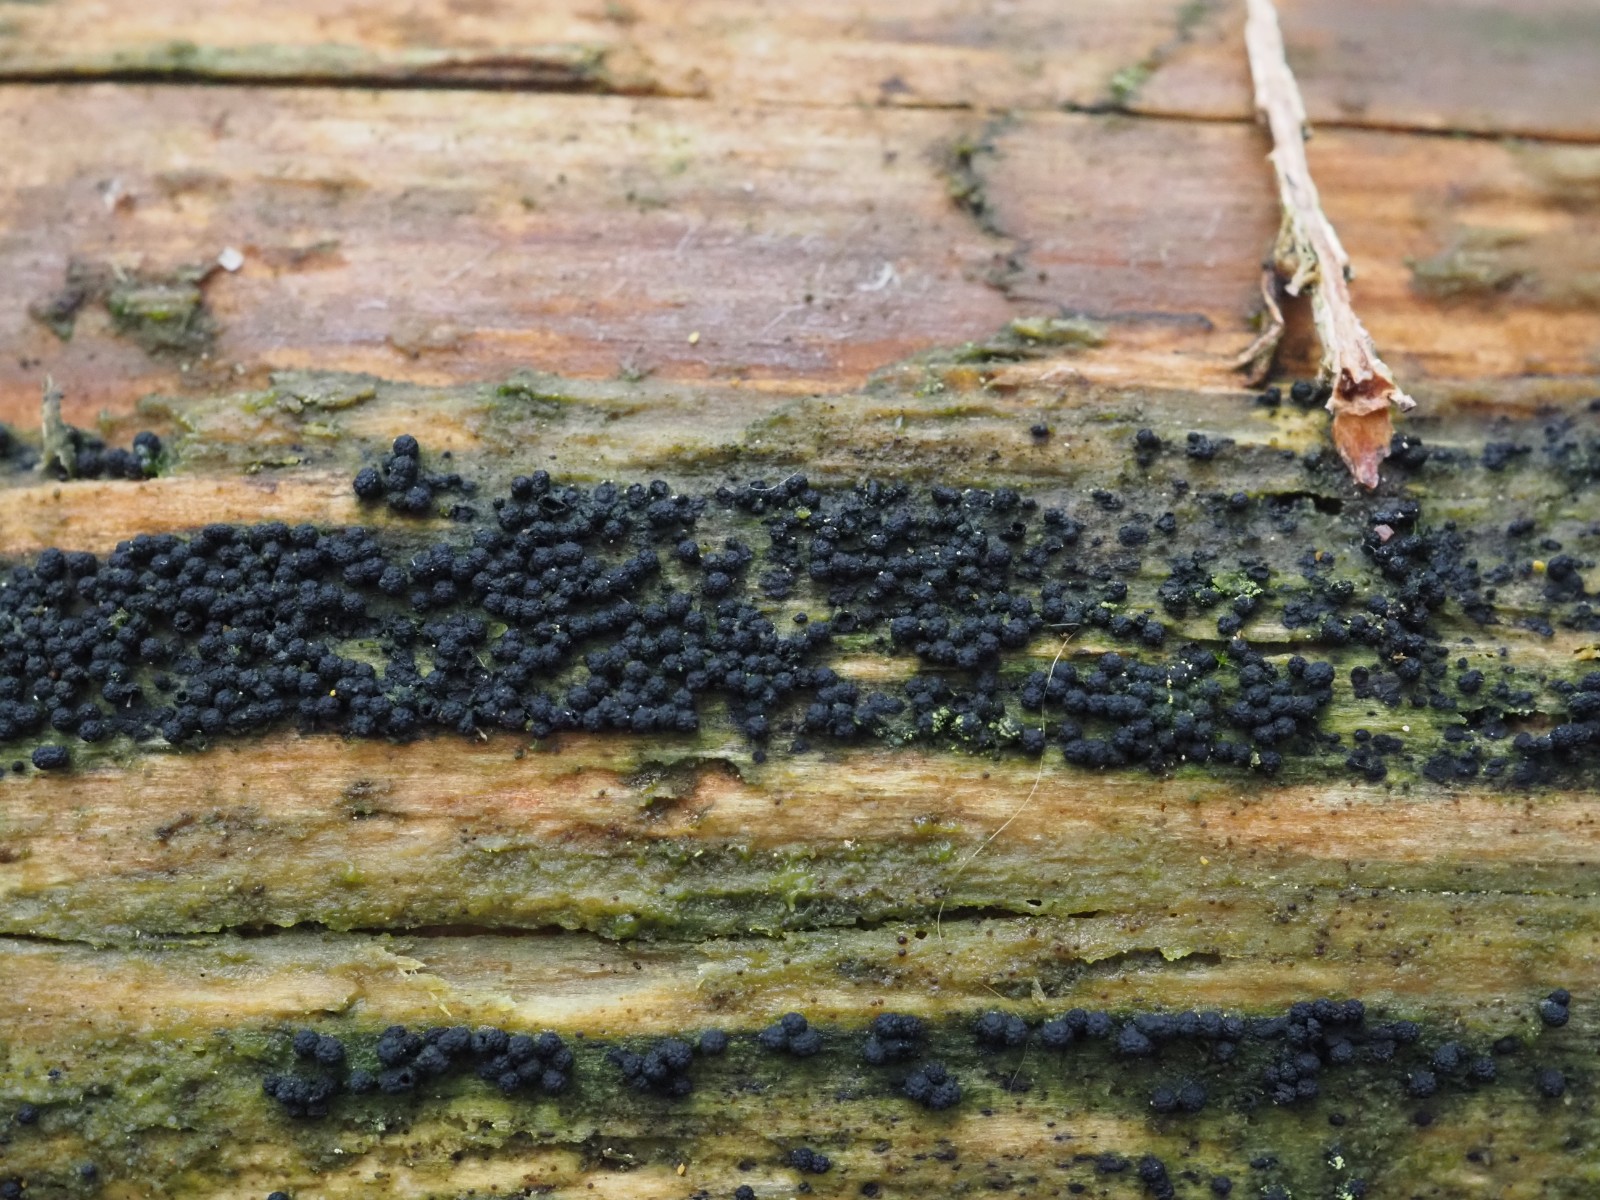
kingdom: Fungi
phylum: Ascomycota
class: Sordariomycetes
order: Coronophorales
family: Bertiaceae
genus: Bertia
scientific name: Bertia moriformis
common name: almindelig morbærkerne
